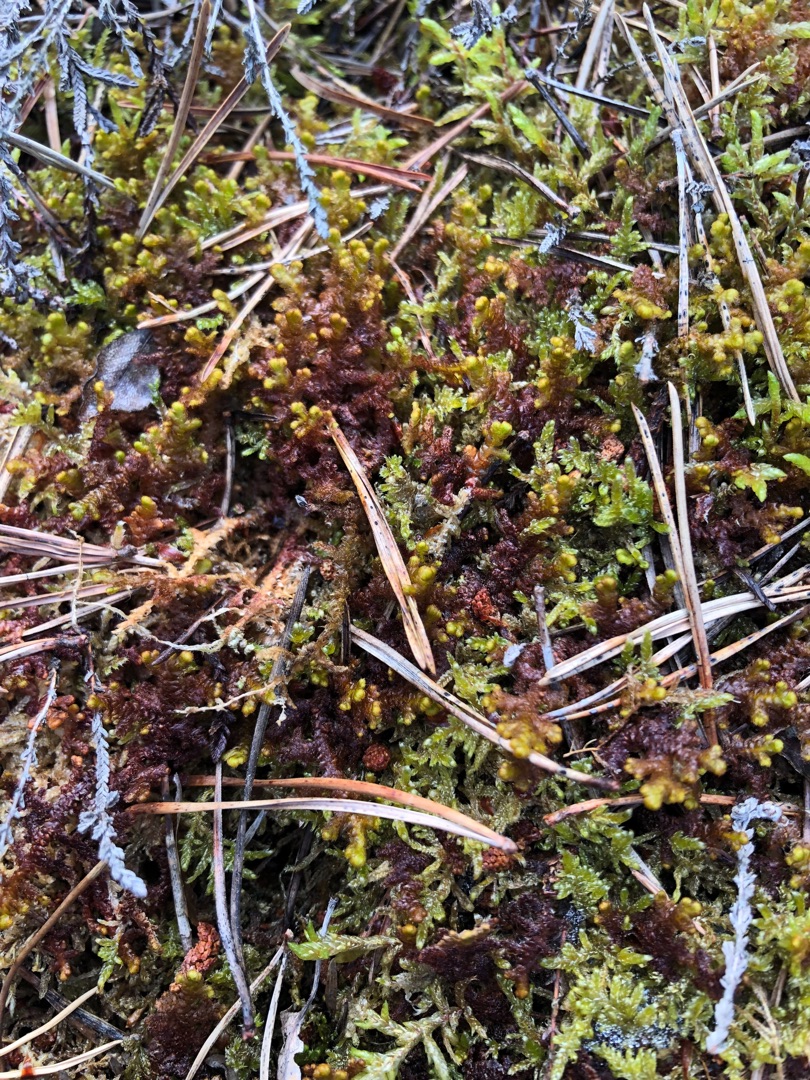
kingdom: Plantae
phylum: Marchantiophyta
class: Jungermanniopsida
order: Ptilidiales
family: Ptilidiaceae
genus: Ptilidium
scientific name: Ptilidium ciliare
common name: Almindelig frynsemos
